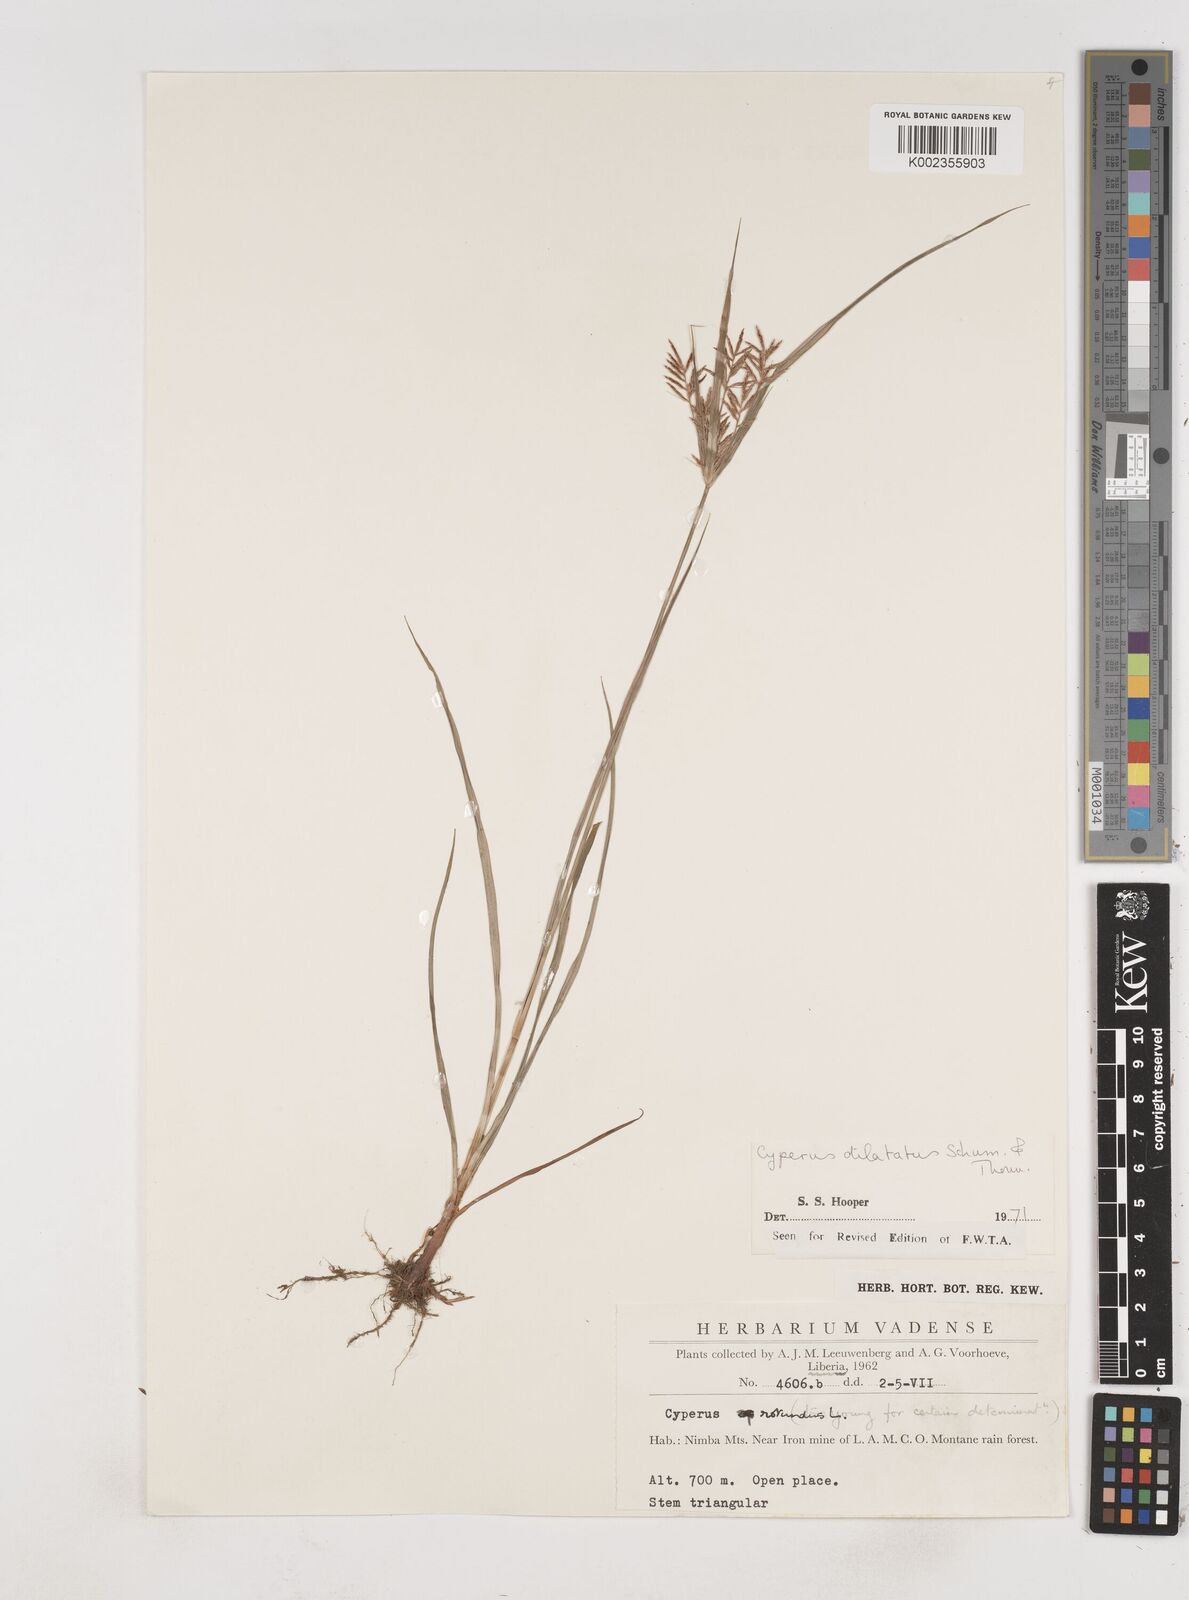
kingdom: Plantae
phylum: Tracheophyta
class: Liliopsida
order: Poales
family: Cyperaceae
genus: Cyperus
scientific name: Cyperus dilatatus
